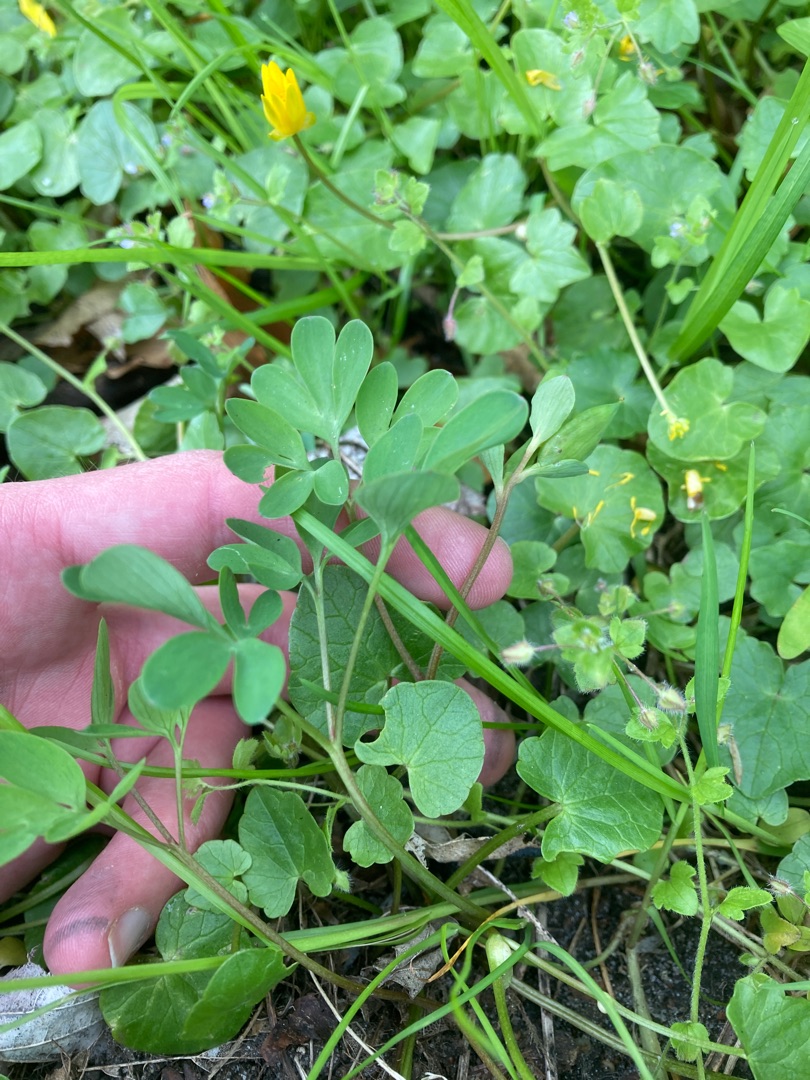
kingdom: Plantae
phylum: Tracheophyta
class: Magnoliopsida
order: Ranunculales
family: Papaveraceae
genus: Corydalis
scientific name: Corydalis intermedia
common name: Liden lærkespore
